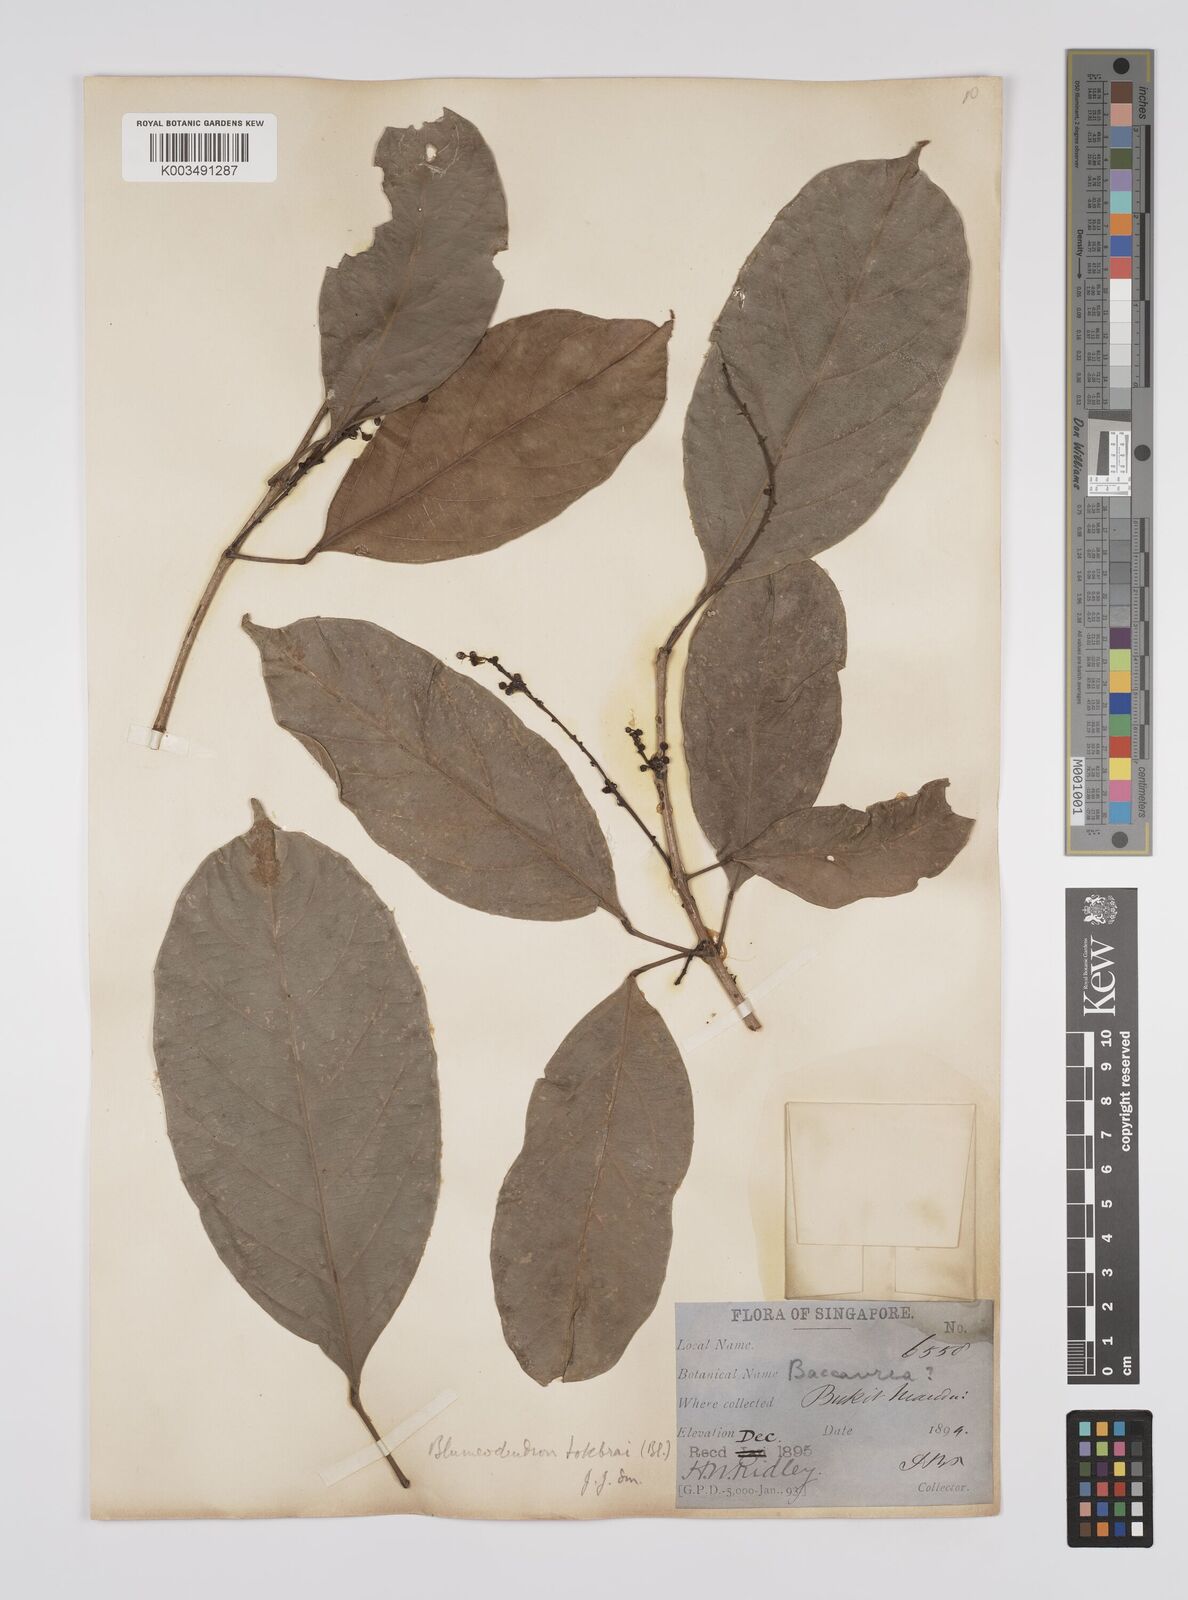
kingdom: Plantae
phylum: Tracheophyta
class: Magnoliopsida
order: Malpighiales
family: Euphorbiaceae
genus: Blumeodendron
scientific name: Blumeodendron tokbrai
